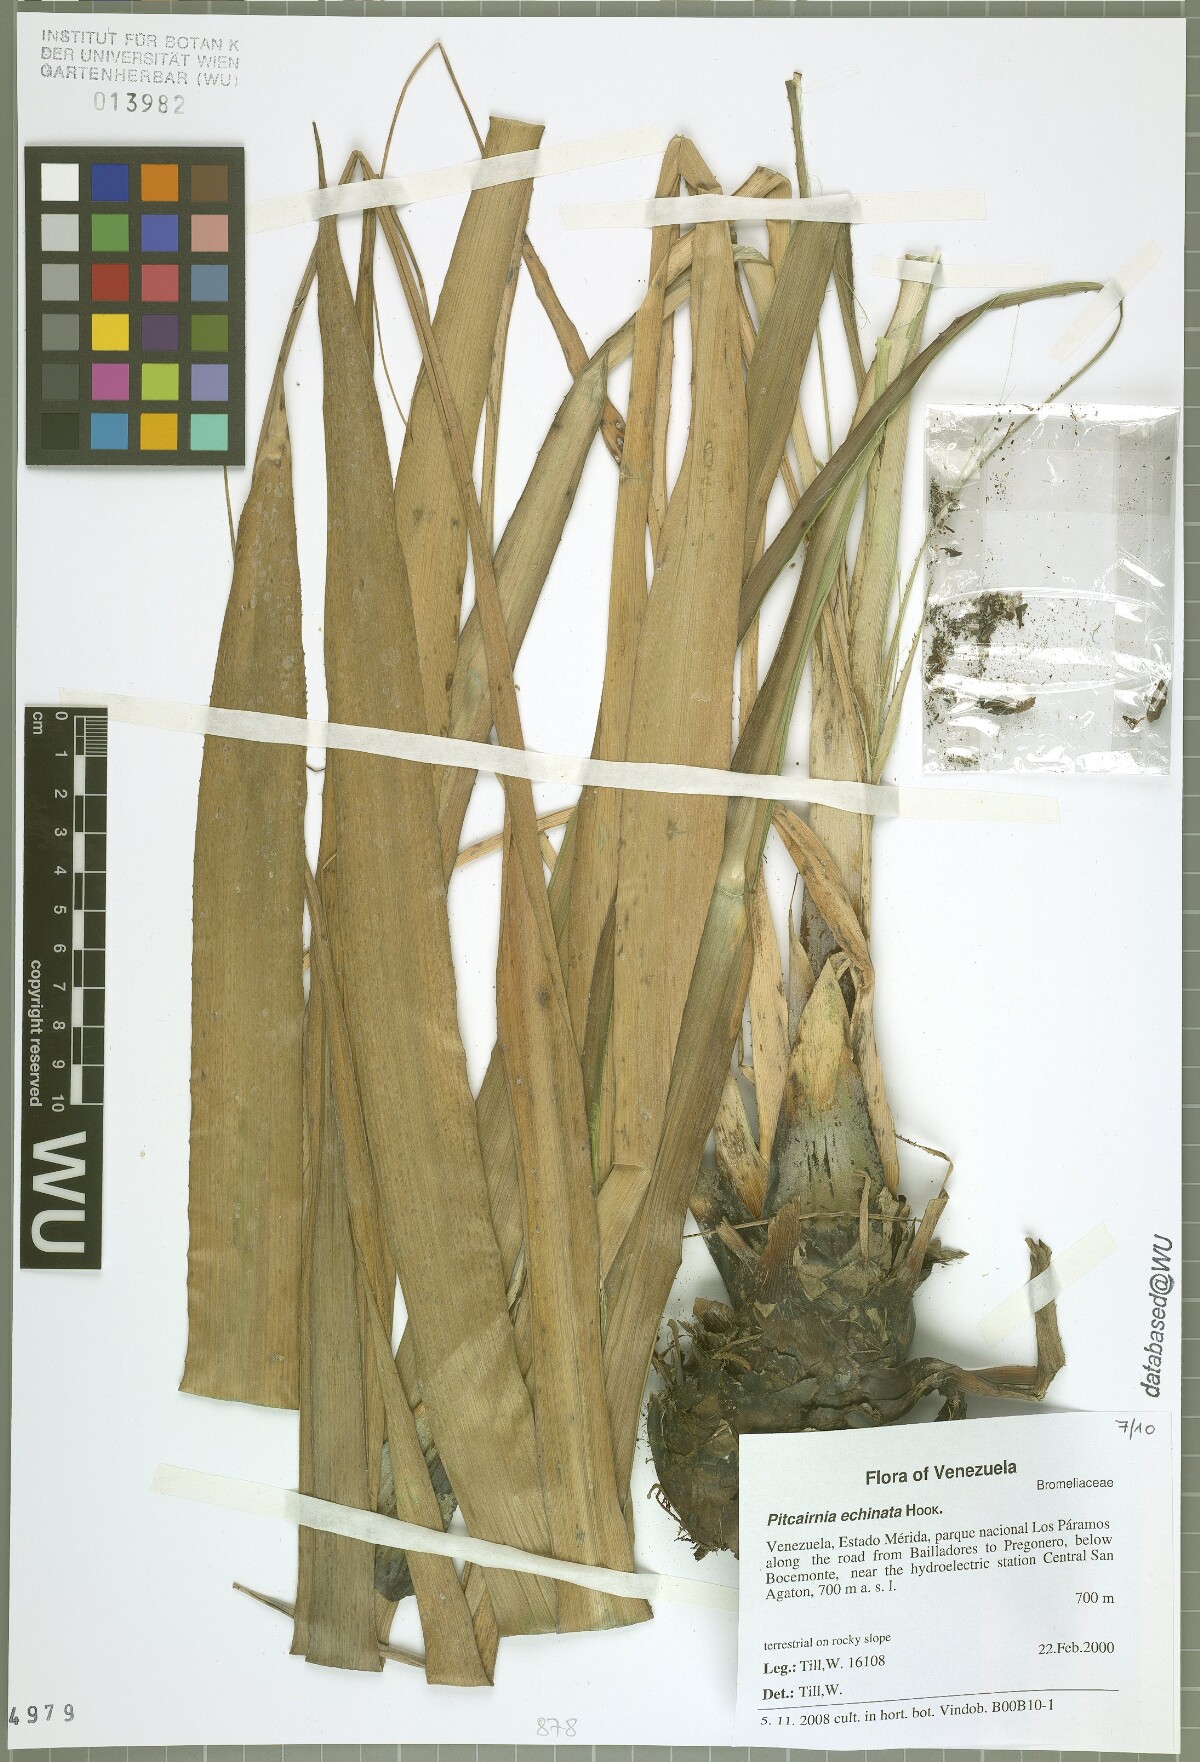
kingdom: Plantae
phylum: Tracheophyta
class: Liliopsida
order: Poales
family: Bromeliaceae
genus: Pitcairnia
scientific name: Pitcairnia echinata
